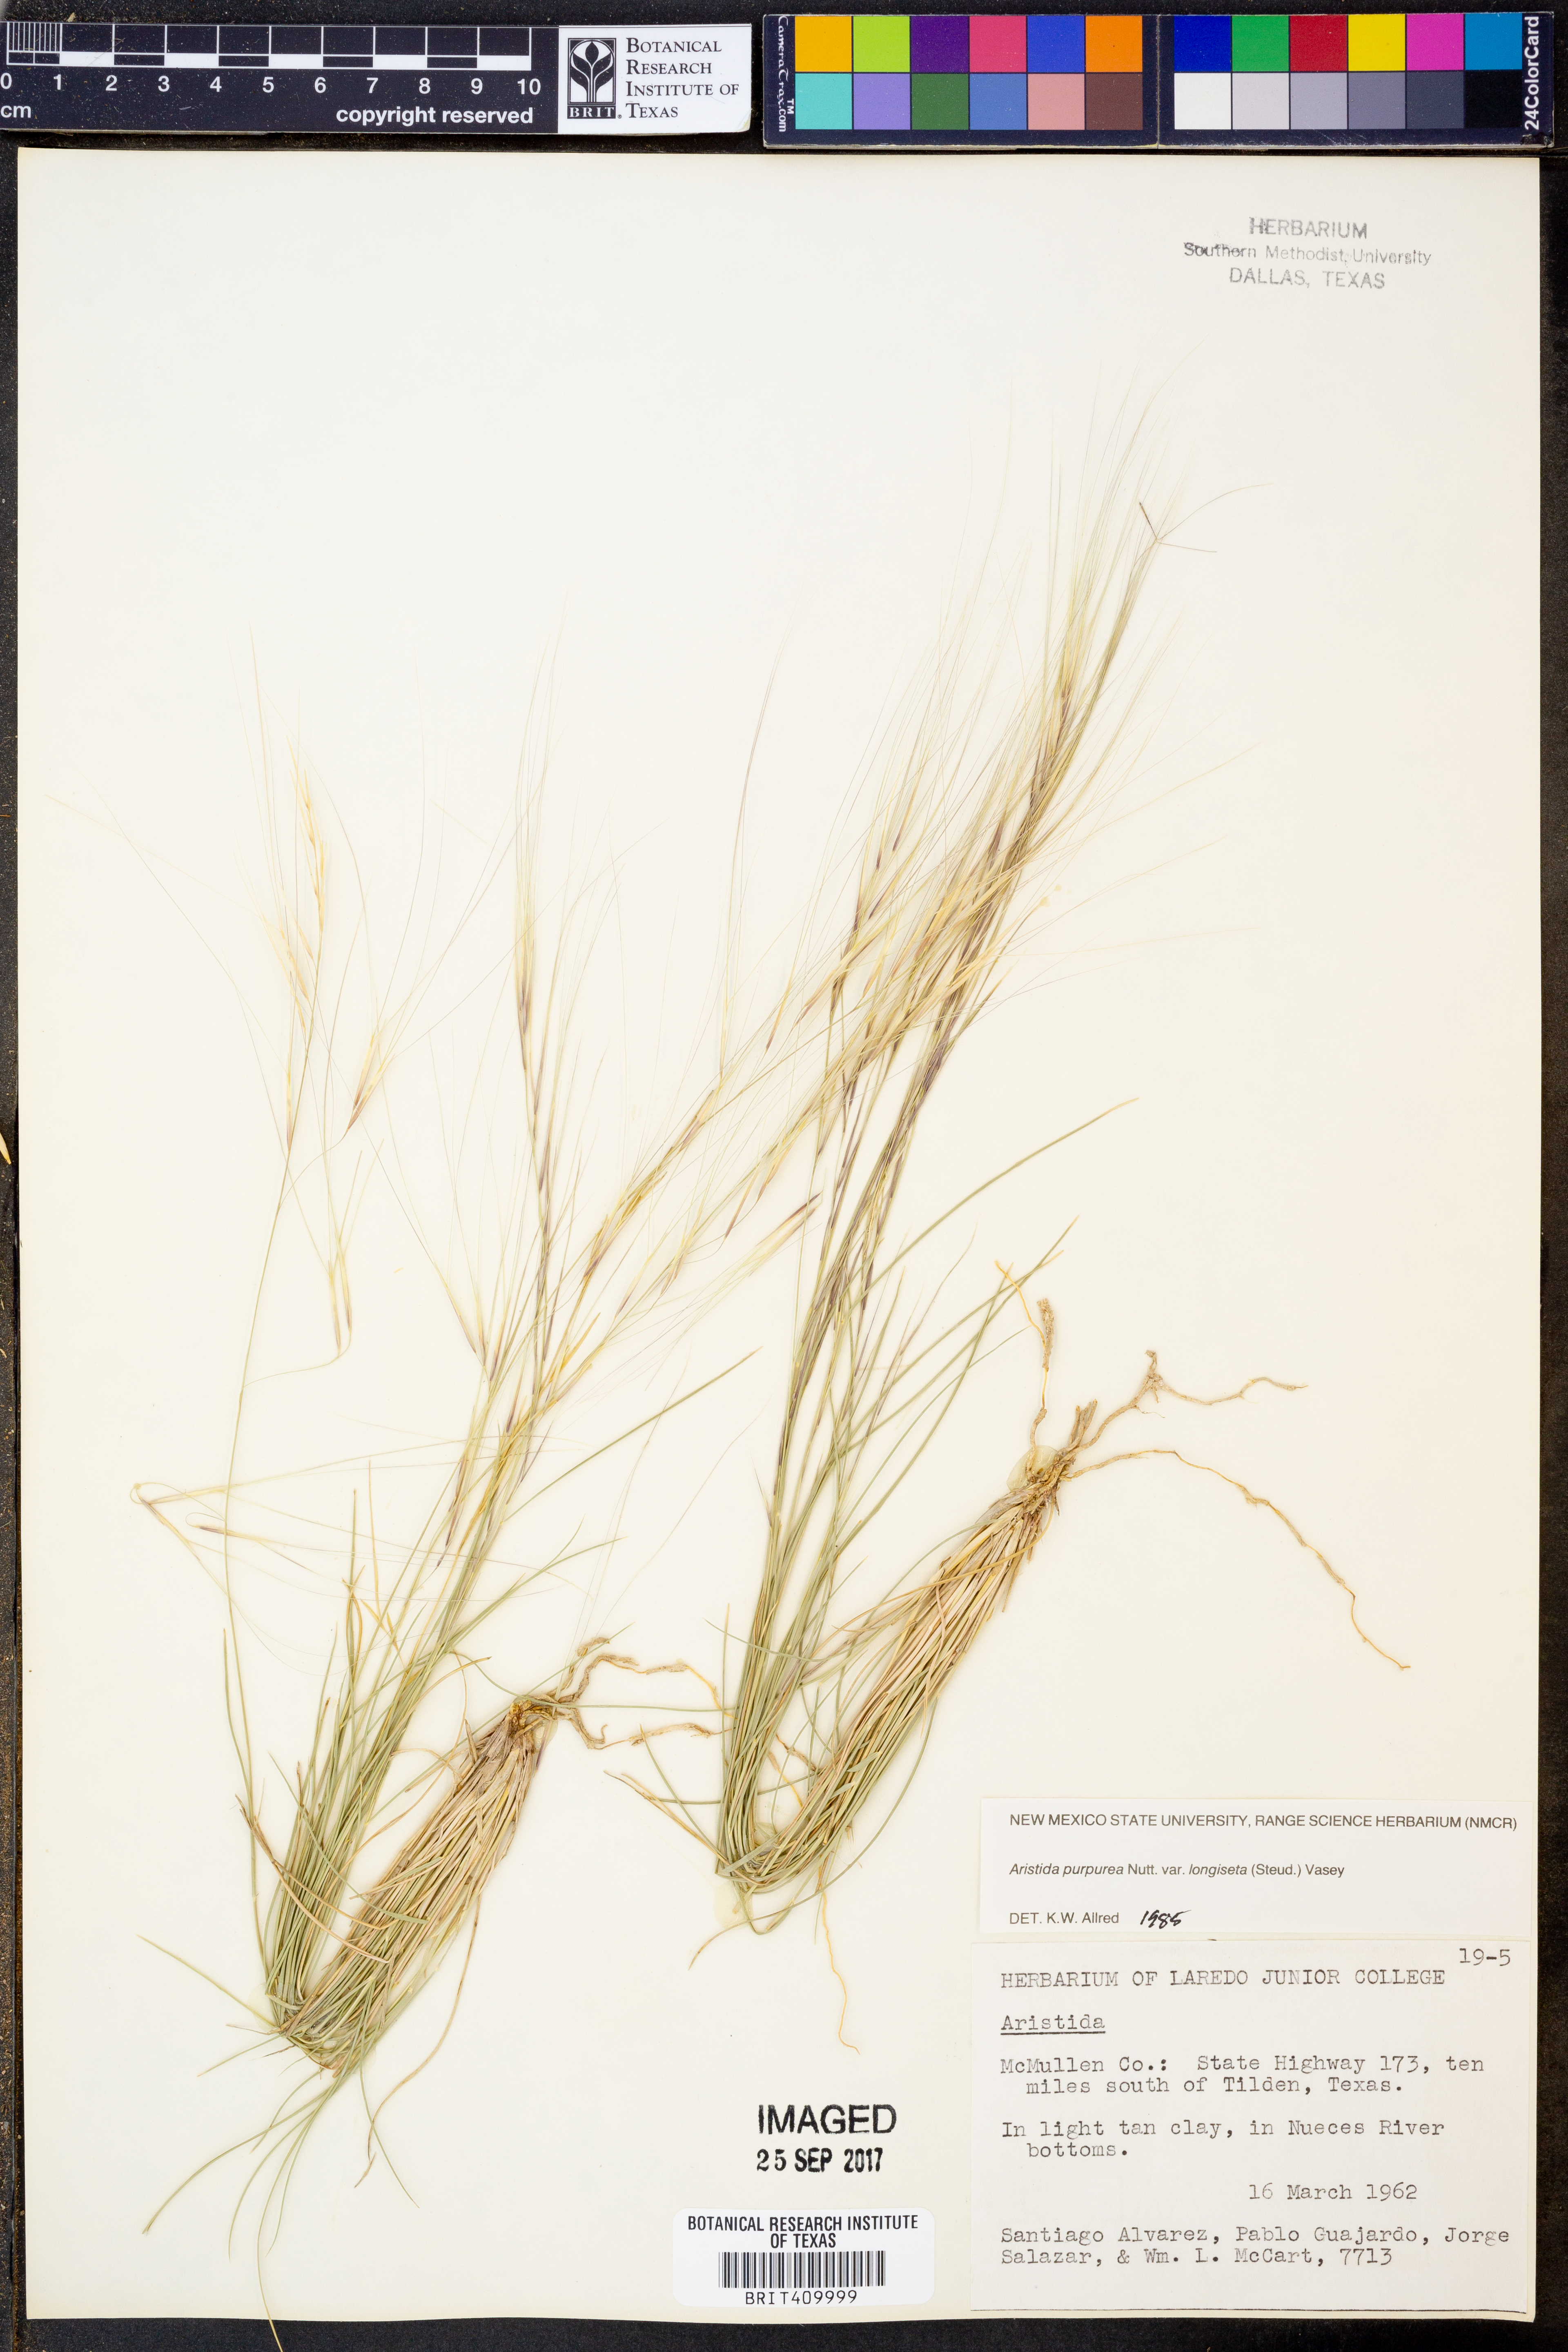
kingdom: Plantae
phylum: Tracheophyta
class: Liliopsida
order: Poales
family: Poaceae
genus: Aristida
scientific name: Aristida longiseta
